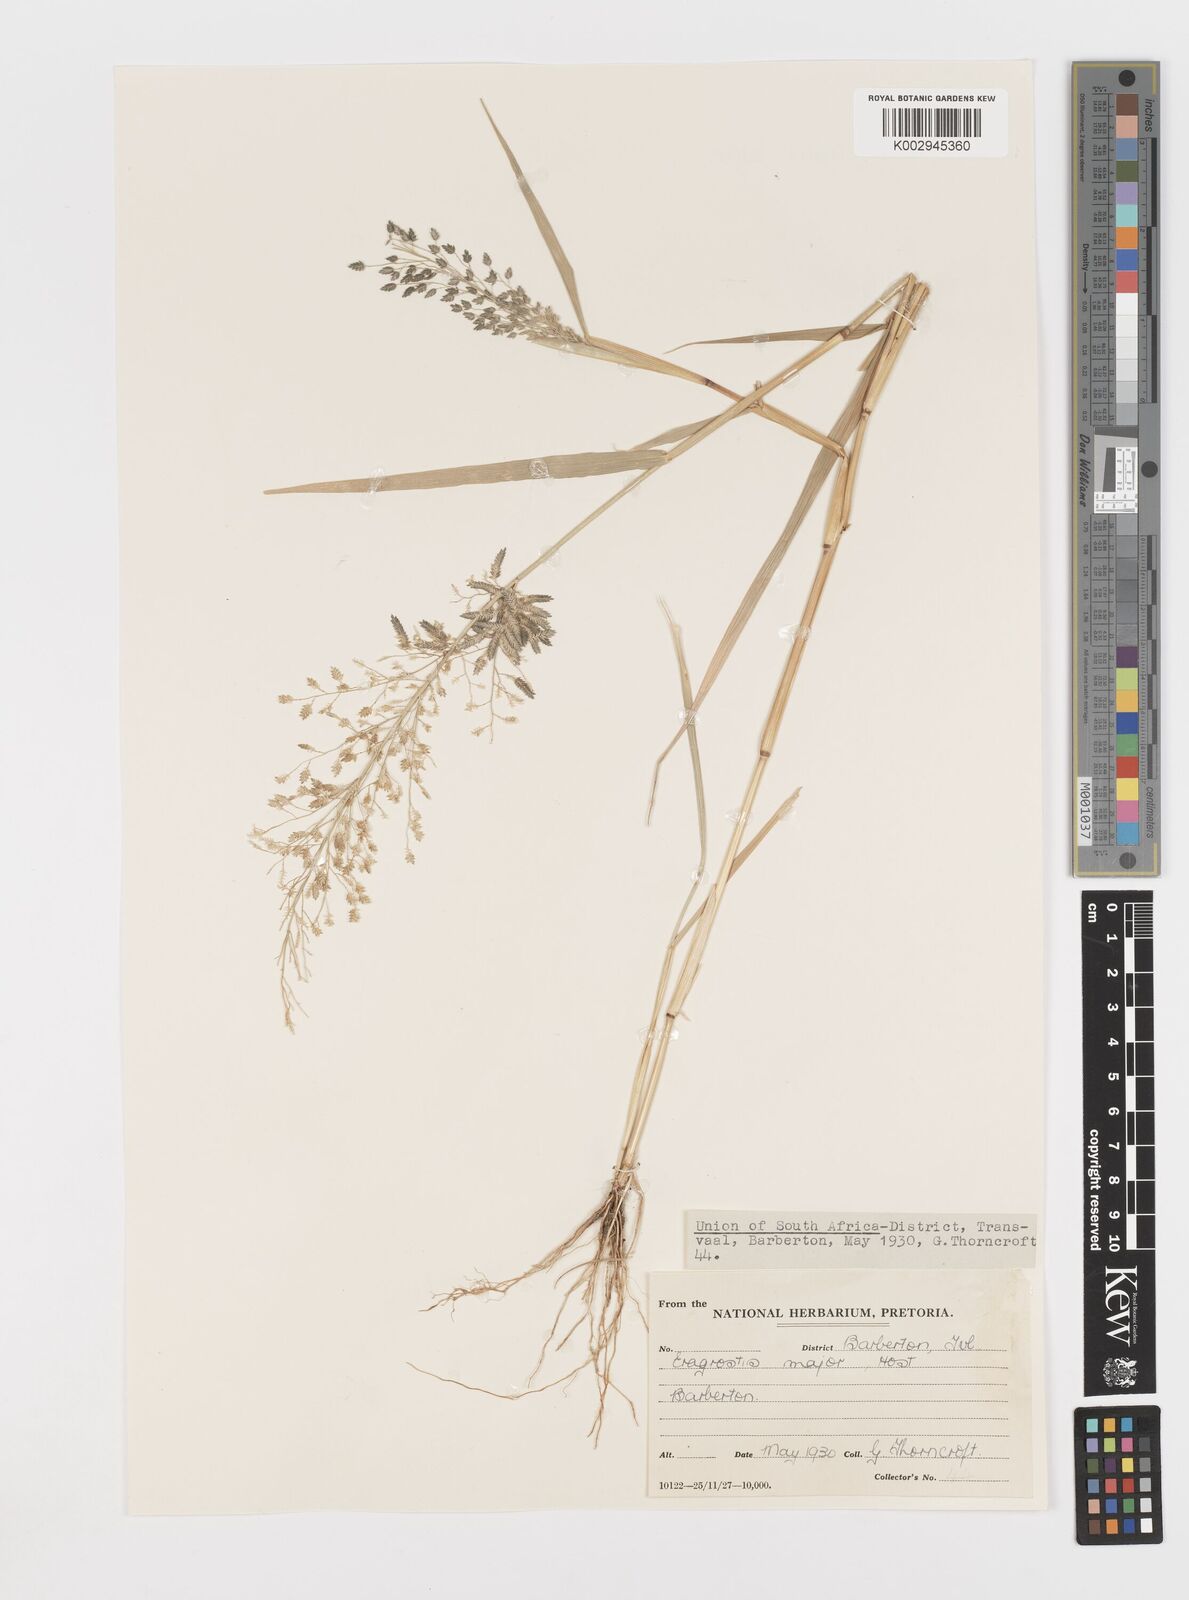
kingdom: Plantae
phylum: Tracheophyta
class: Liliopsida
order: Poales
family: Poaceae
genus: Eragrostis
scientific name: Eragrostis cilianensis
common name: Stinkgrass
